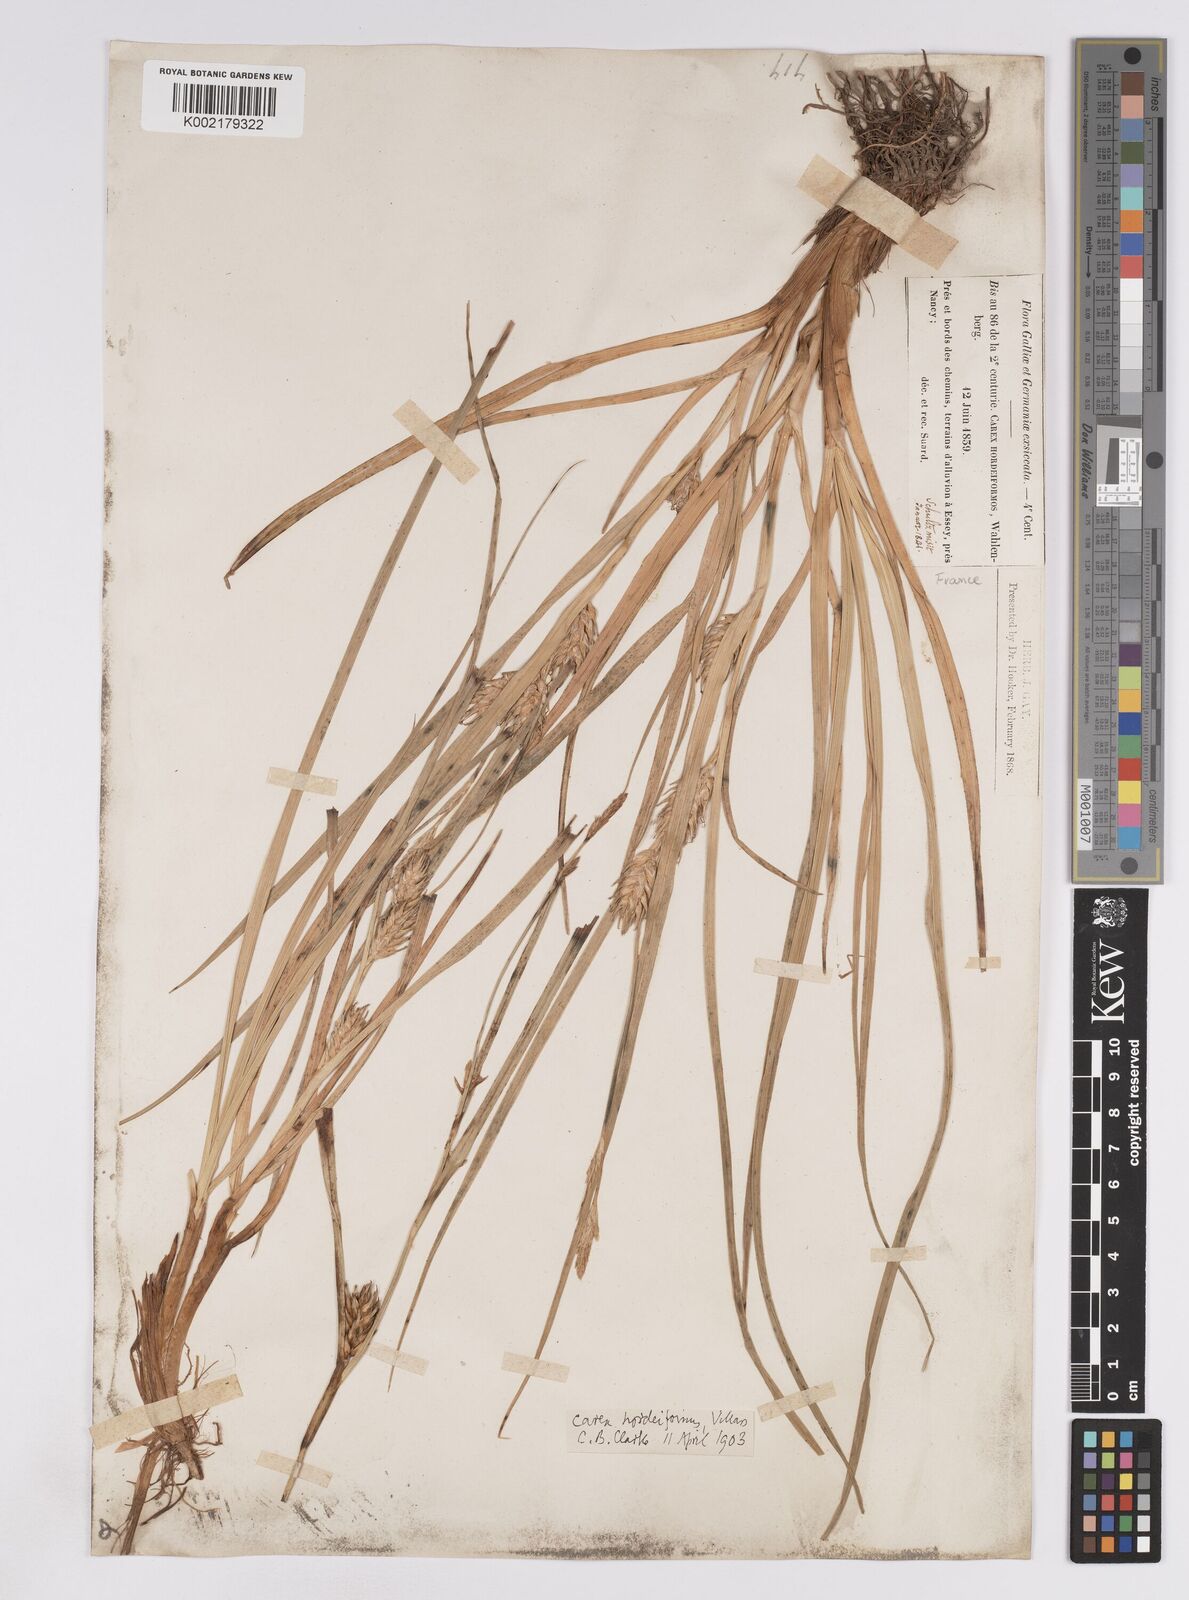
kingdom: Plantae
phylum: Tracheophyta
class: Liliopsida
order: Poales
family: Cyperaceae
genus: Carex
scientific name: Carex hordeistichos
